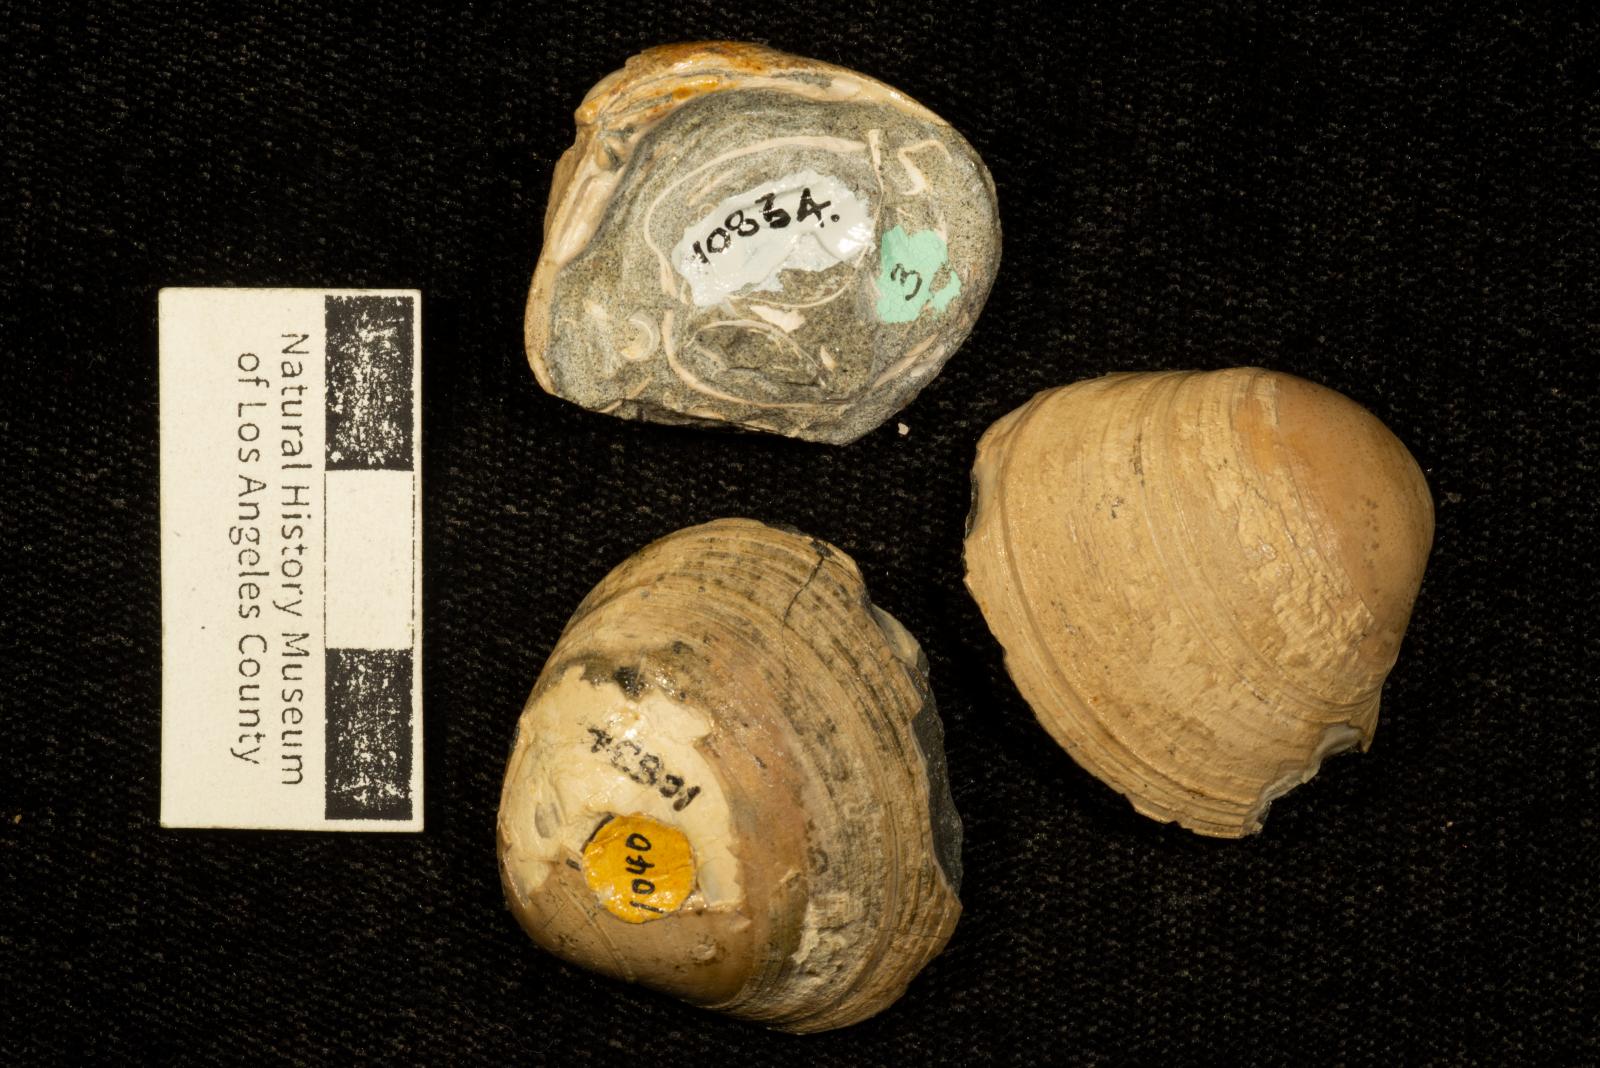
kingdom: Animalia
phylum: Mollusca
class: Bivalvia
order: Venerida
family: Veneridae
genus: Calva
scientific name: Calva Trigonocallista buttensis
